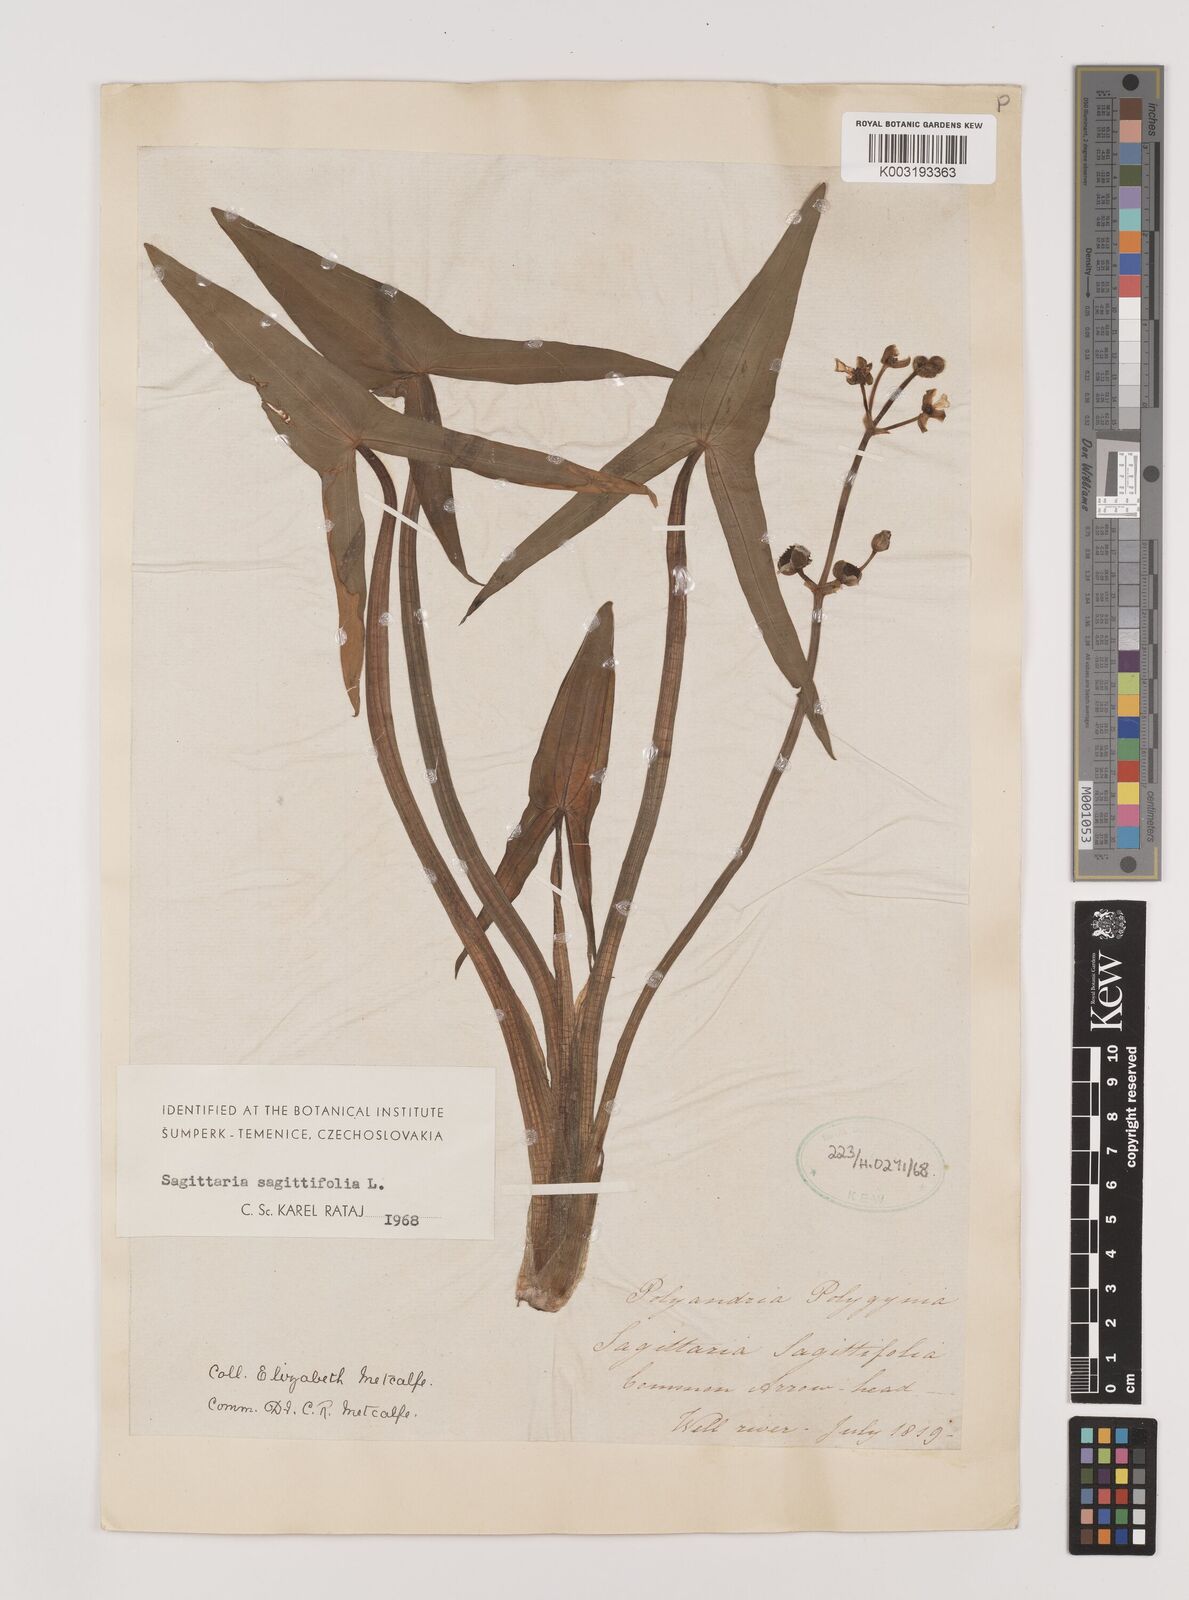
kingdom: Plantae
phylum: Tracheophyta
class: Liliopsida
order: Alismatales
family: Alismataceae
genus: Sagittaria
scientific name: Sagittaria sagittifolia
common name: Arrowhead
